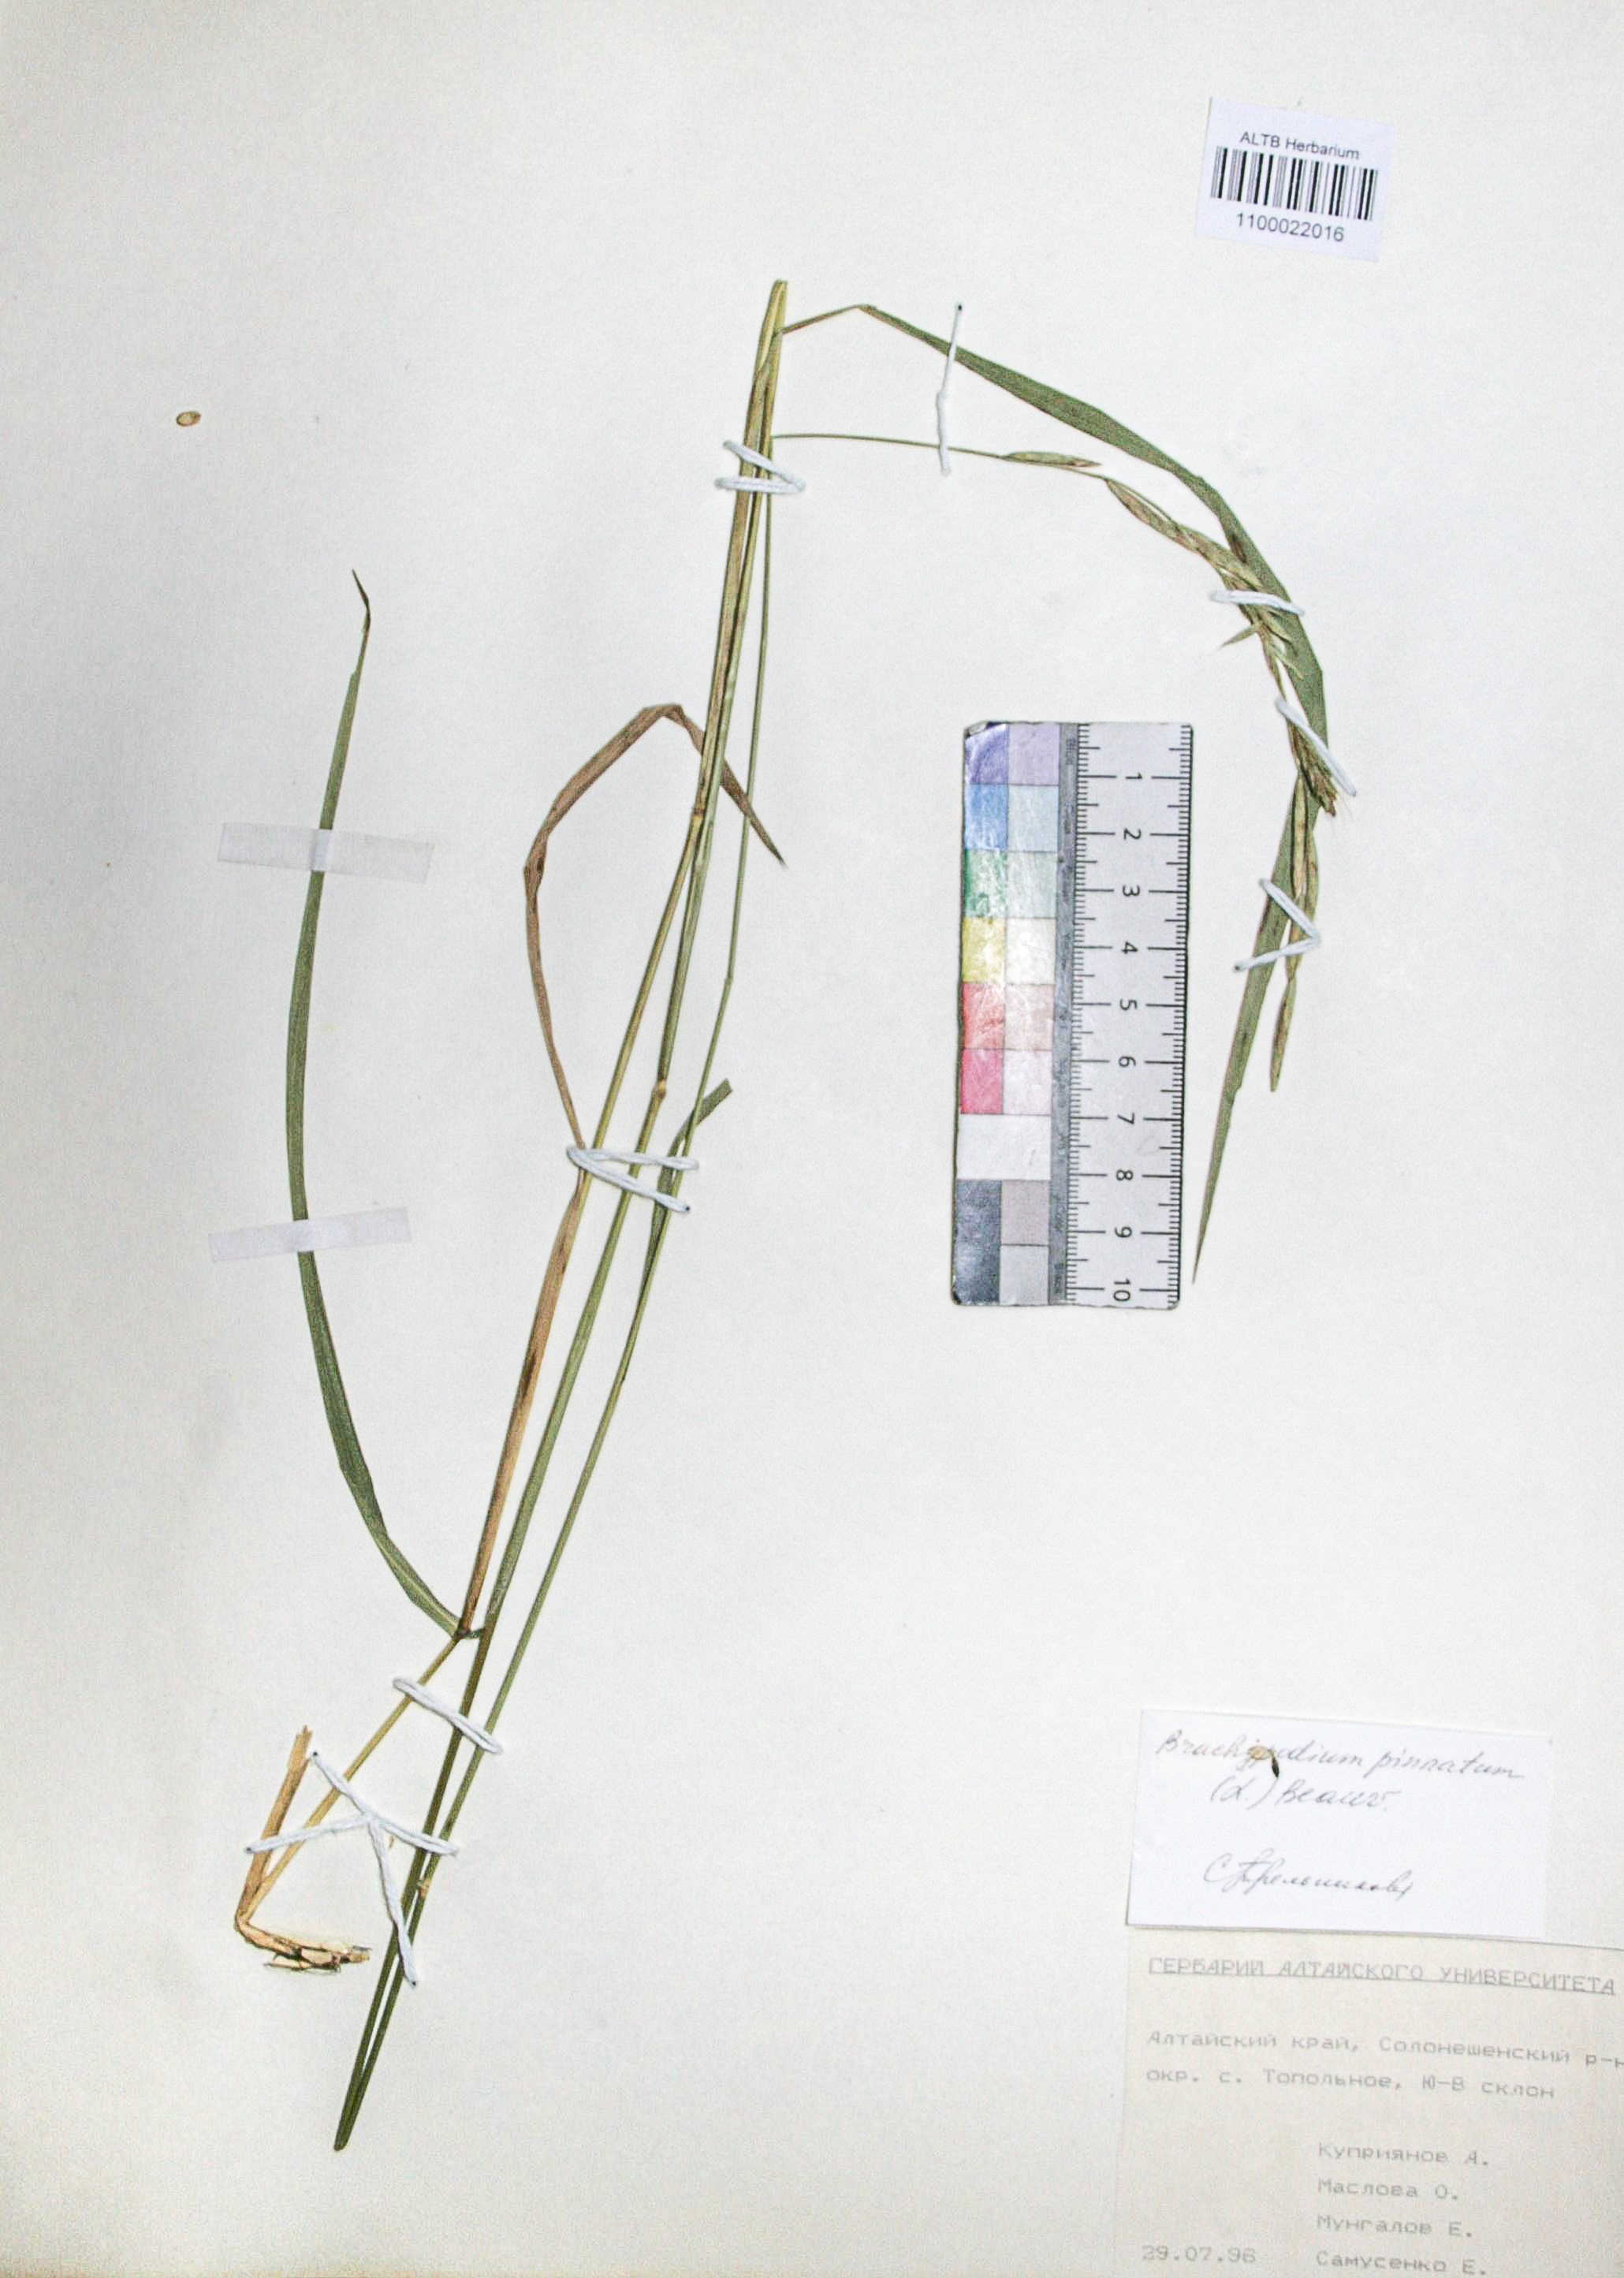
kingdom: Plantae
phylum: Tracheophyta
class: Liliopsida
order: Poales
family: Poaceae
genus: Brachypodium
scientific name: Brachypodium pinnatum
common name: Tor grass
